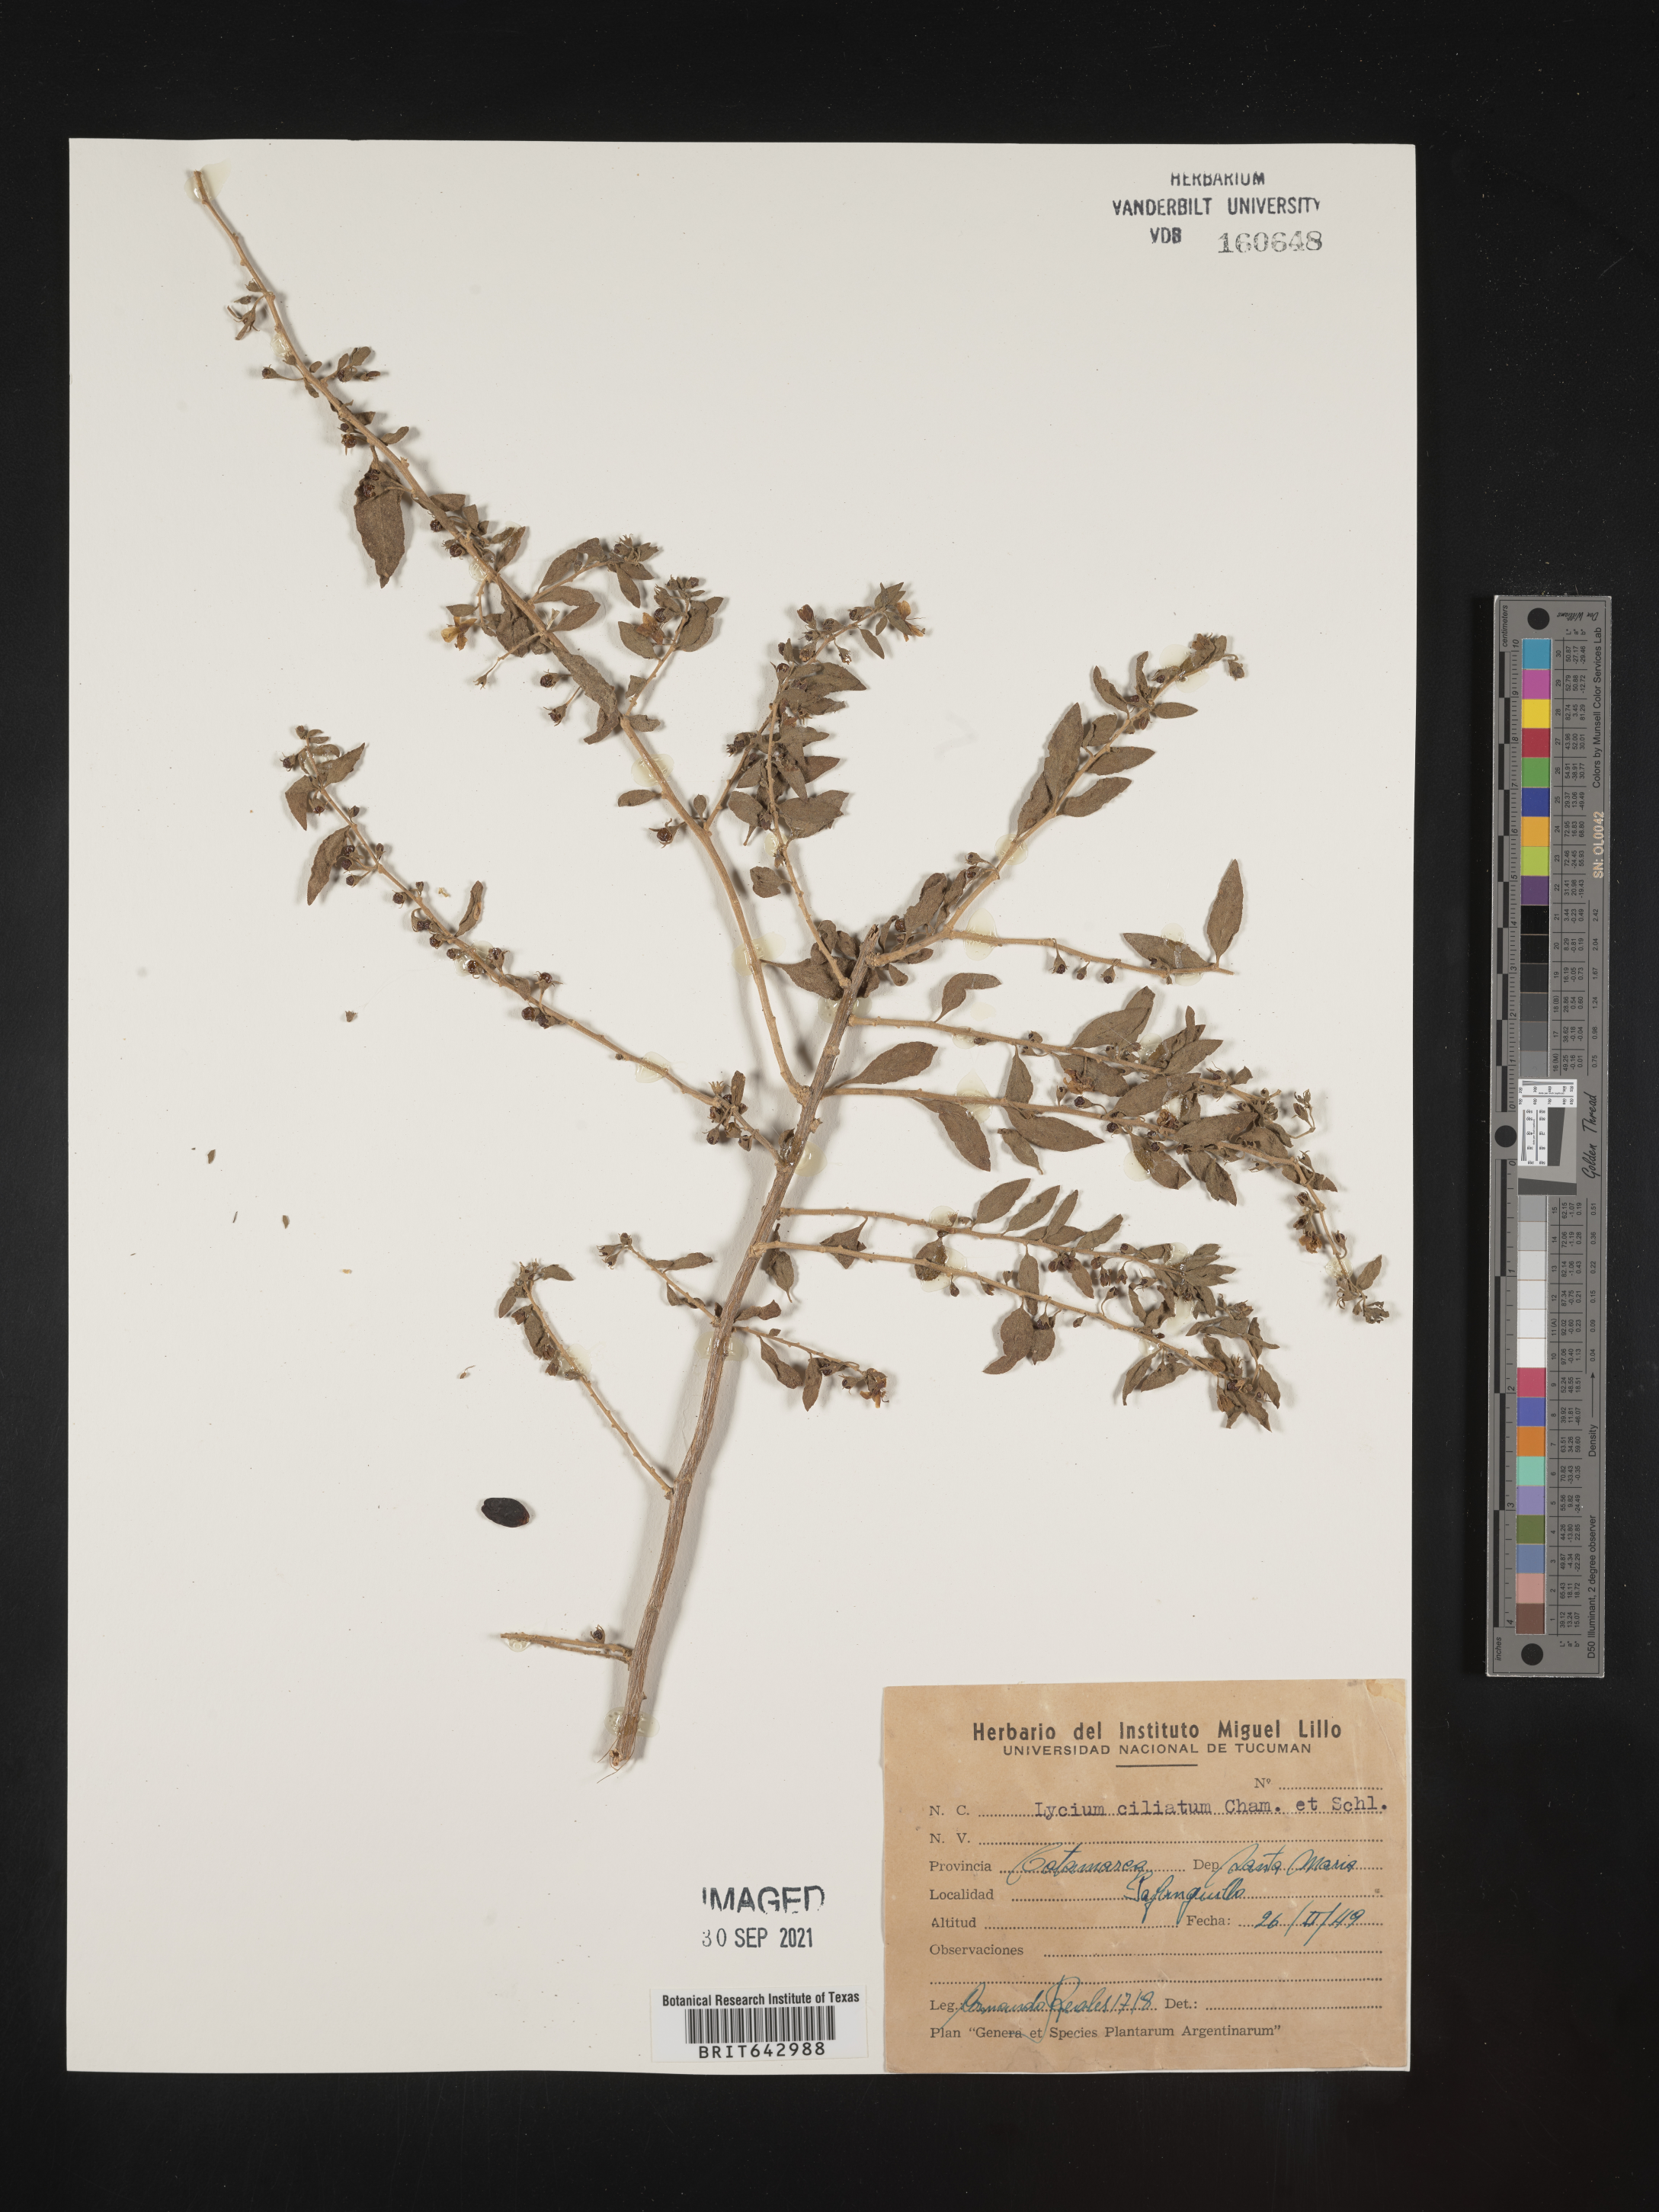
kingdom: Plantae
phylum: Tracheophyta
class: Magnoliopsida
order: Solanales
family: Solanaceae
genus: Lycium
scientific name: Lycium
